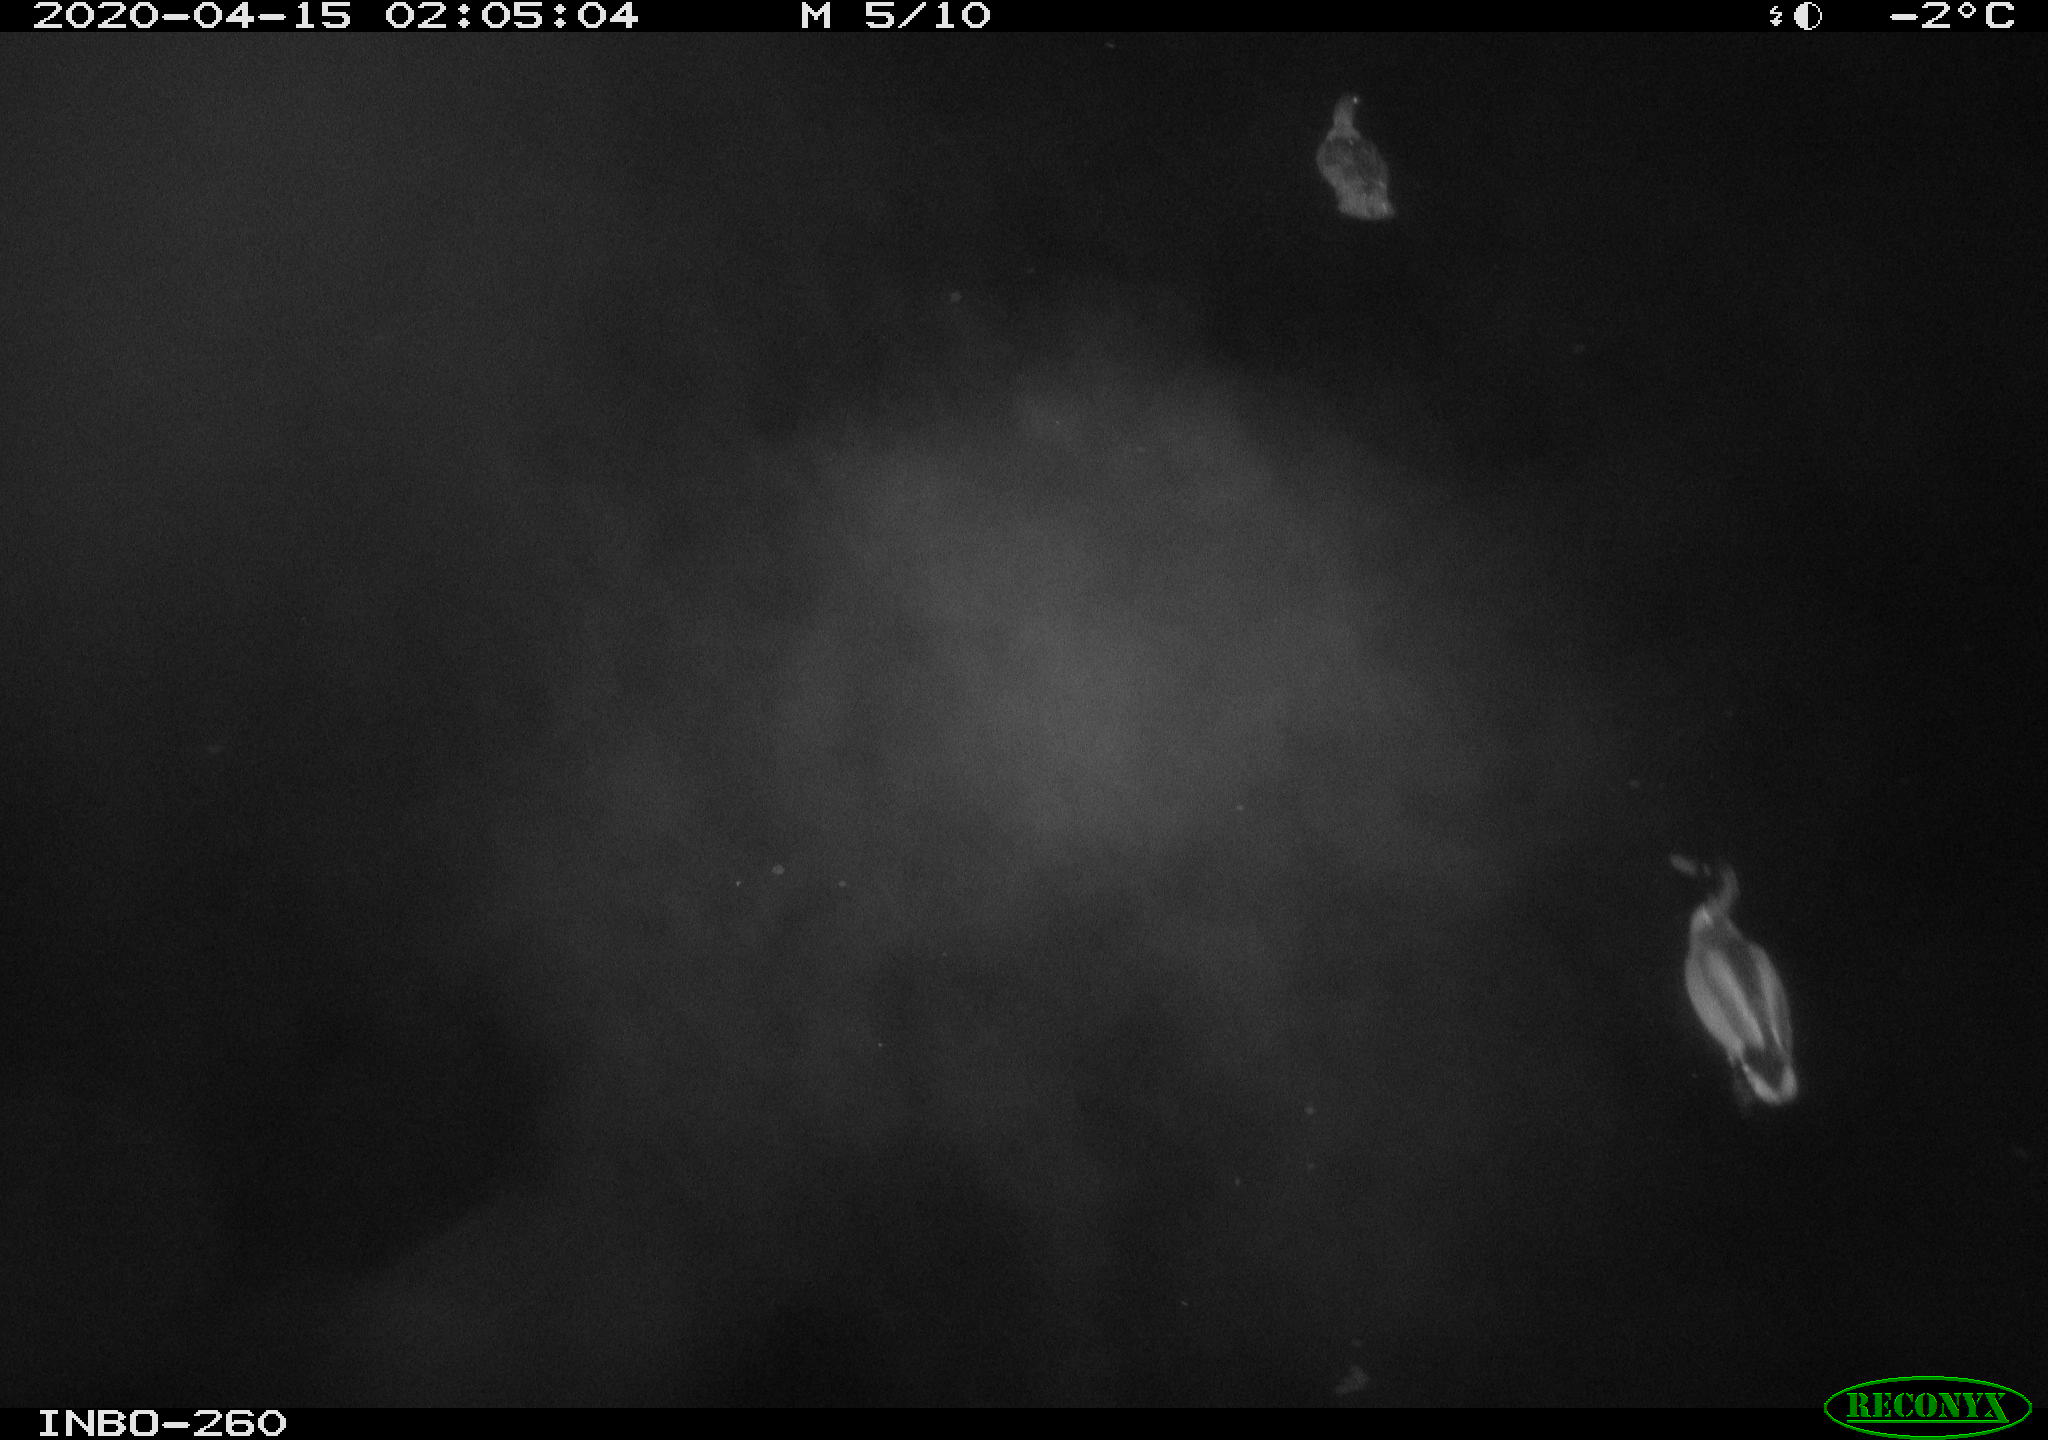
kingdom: Animalia
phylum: Chordata
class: Aves
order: Anseriformes
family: Anatidae
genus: Anas
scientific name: Anas platyrhynchos
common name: Mallard
